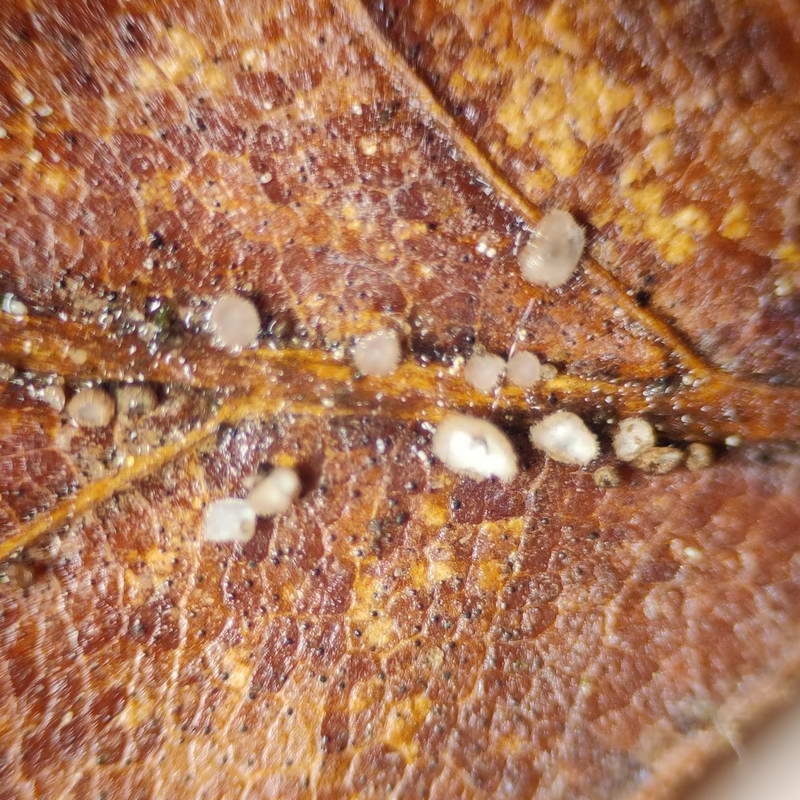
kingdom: Fungi
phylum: Ascomycota
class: Leotiomycetes
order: Helotiales
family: Lachnaceae
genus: Brunnipila
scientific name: Brunnipila fuscescens
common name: bøge-frynseskive
